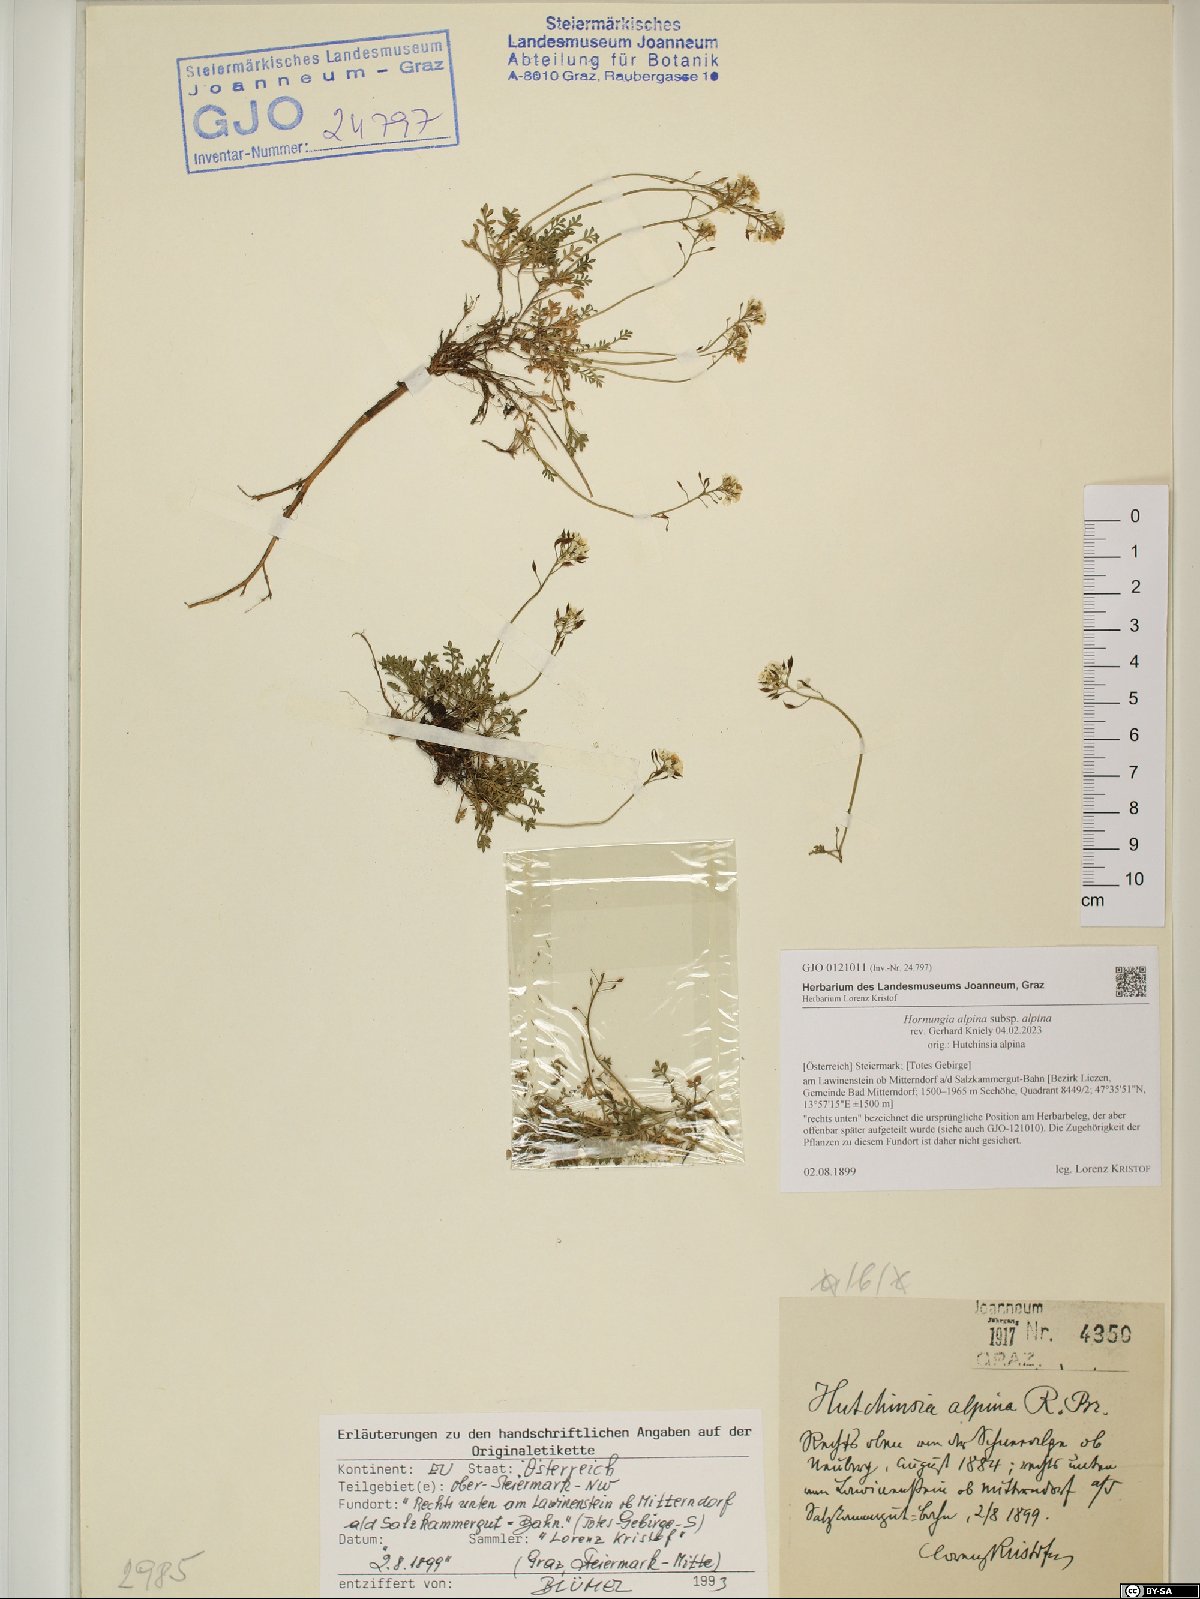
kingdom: Plantae
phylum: Tracheophyta
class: Magnoliopsida
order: Brassicales
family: Brassicaceae
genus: Hornungia
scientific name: Hornungia alpina
